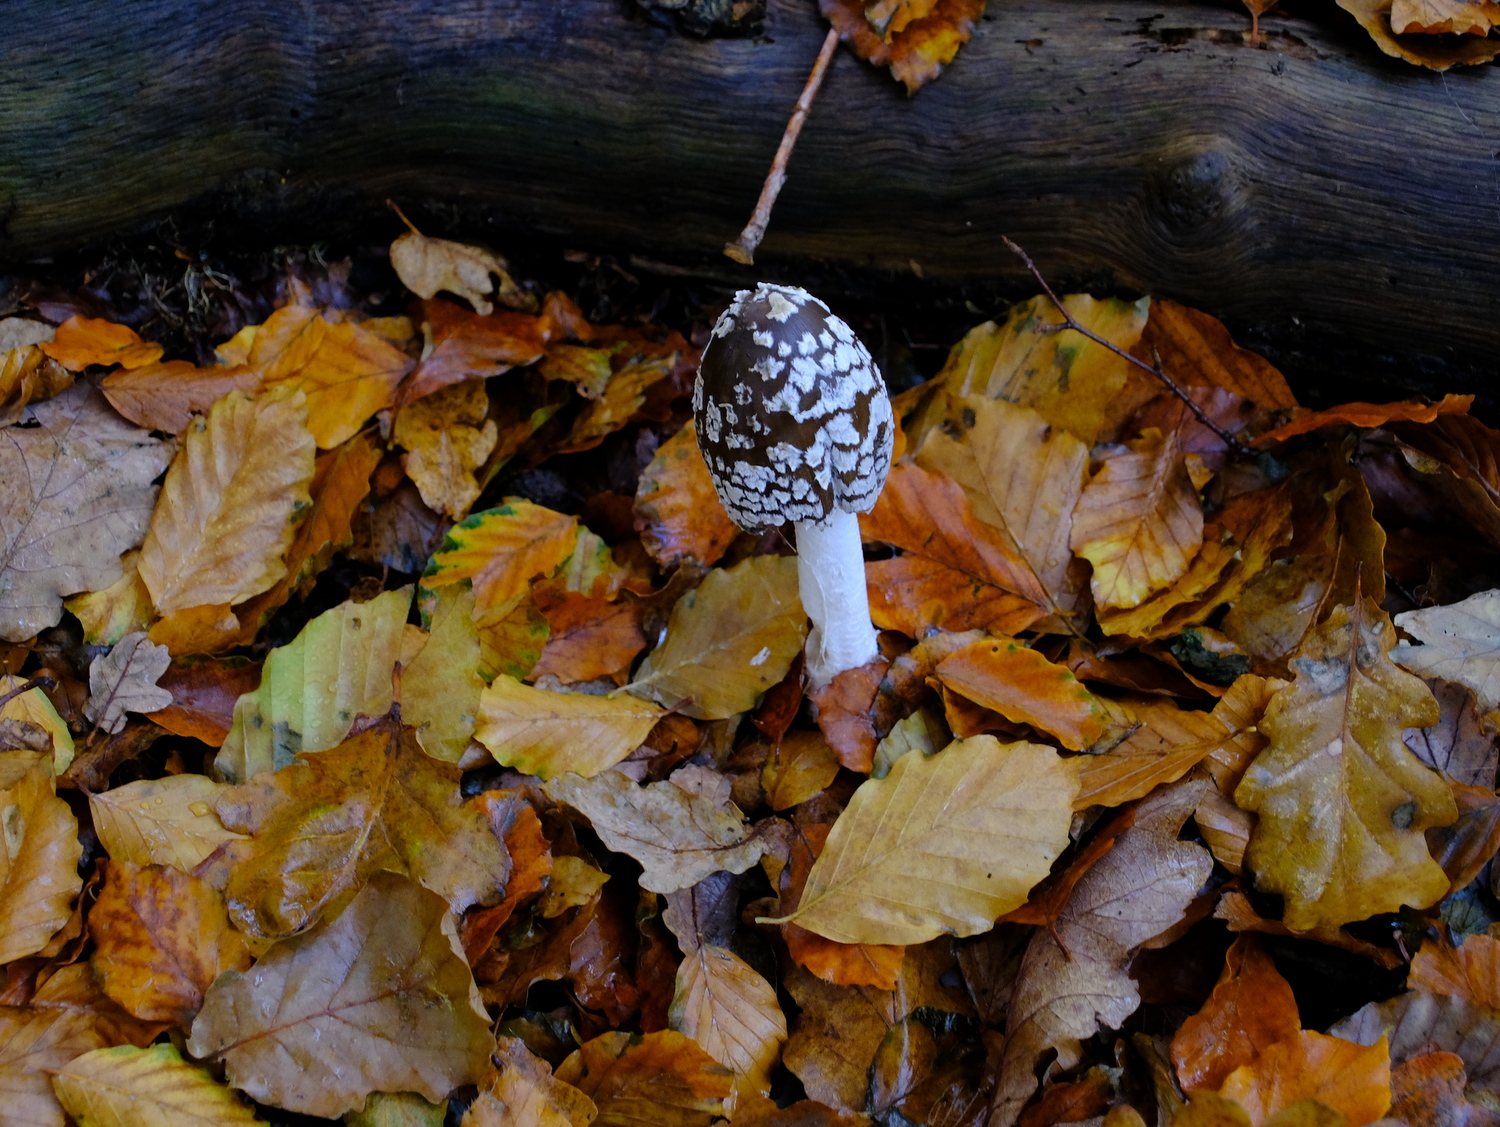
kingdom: Fungi
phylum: Basidiomycota
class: Agaricomycetes
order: Agaricales
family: Psathyrellaceae
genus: Coprinopsis
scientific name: Coprinopsis picacea
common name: skade-blækhat
